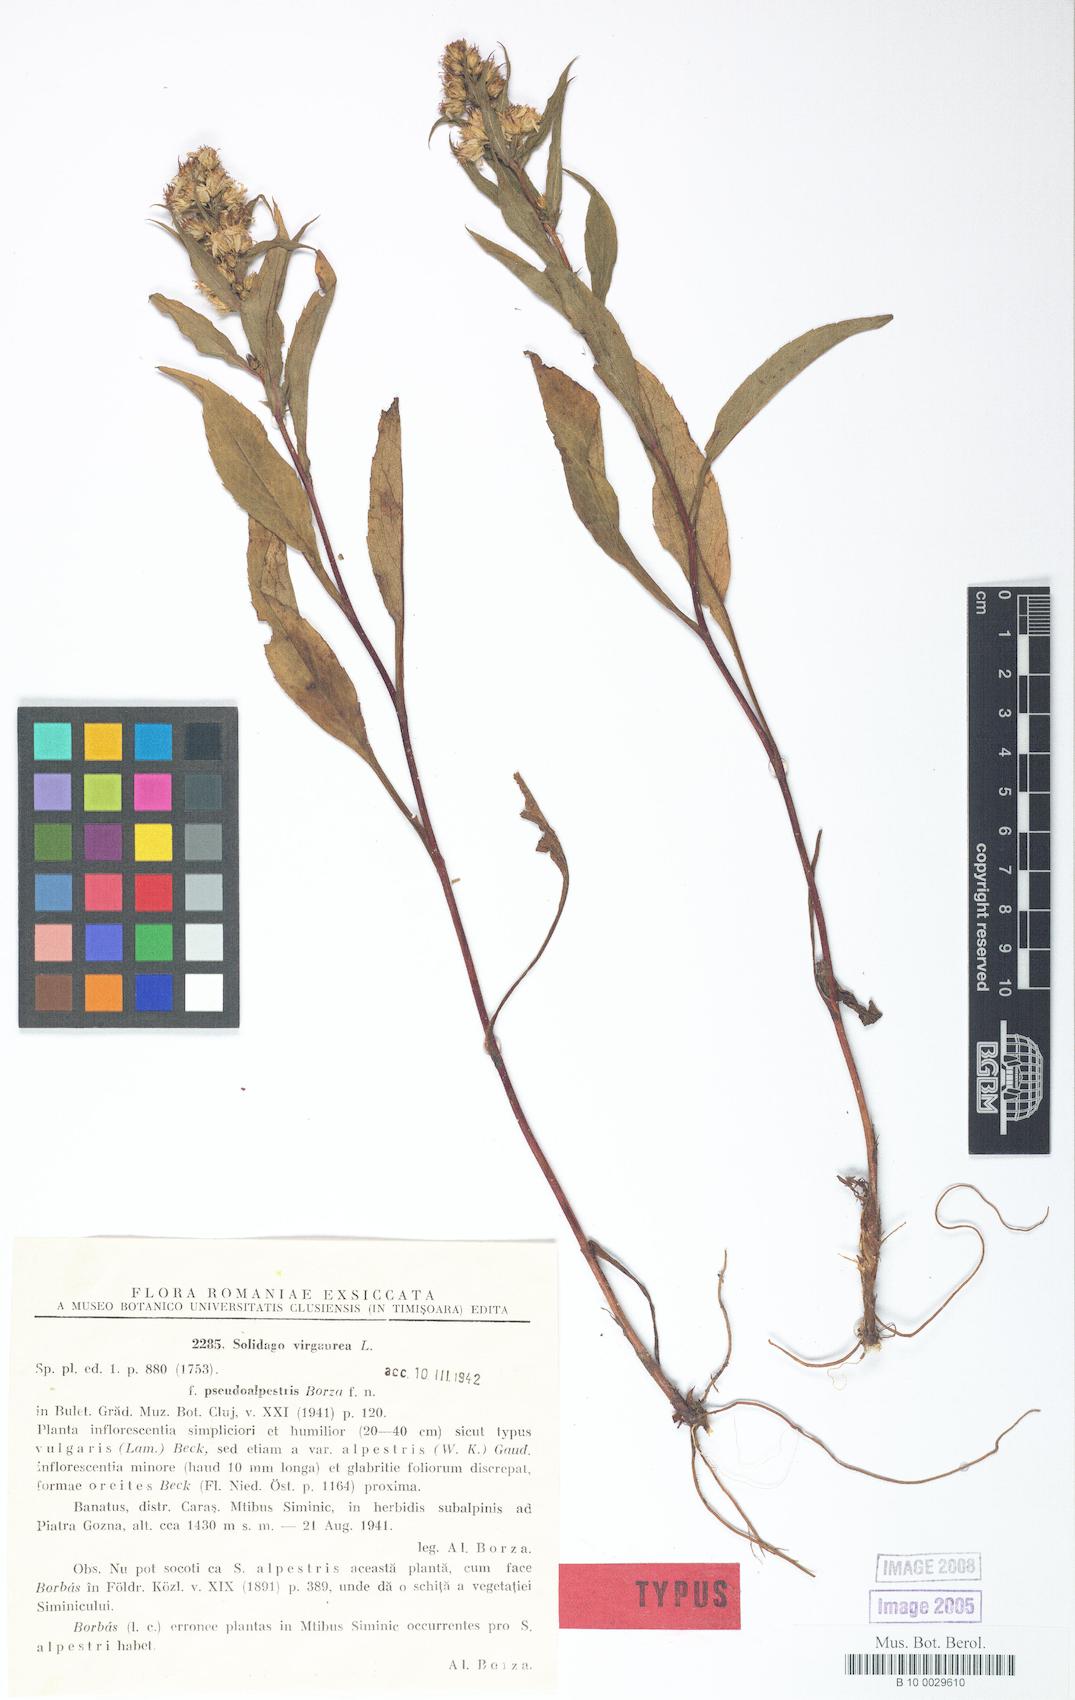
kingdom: Plantae
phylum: Tracheophyta
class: Magnoliopsida
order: Asterales
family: Asteraceae
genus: Solidago
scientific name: Solidago virgaurea
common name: Goldenrod
